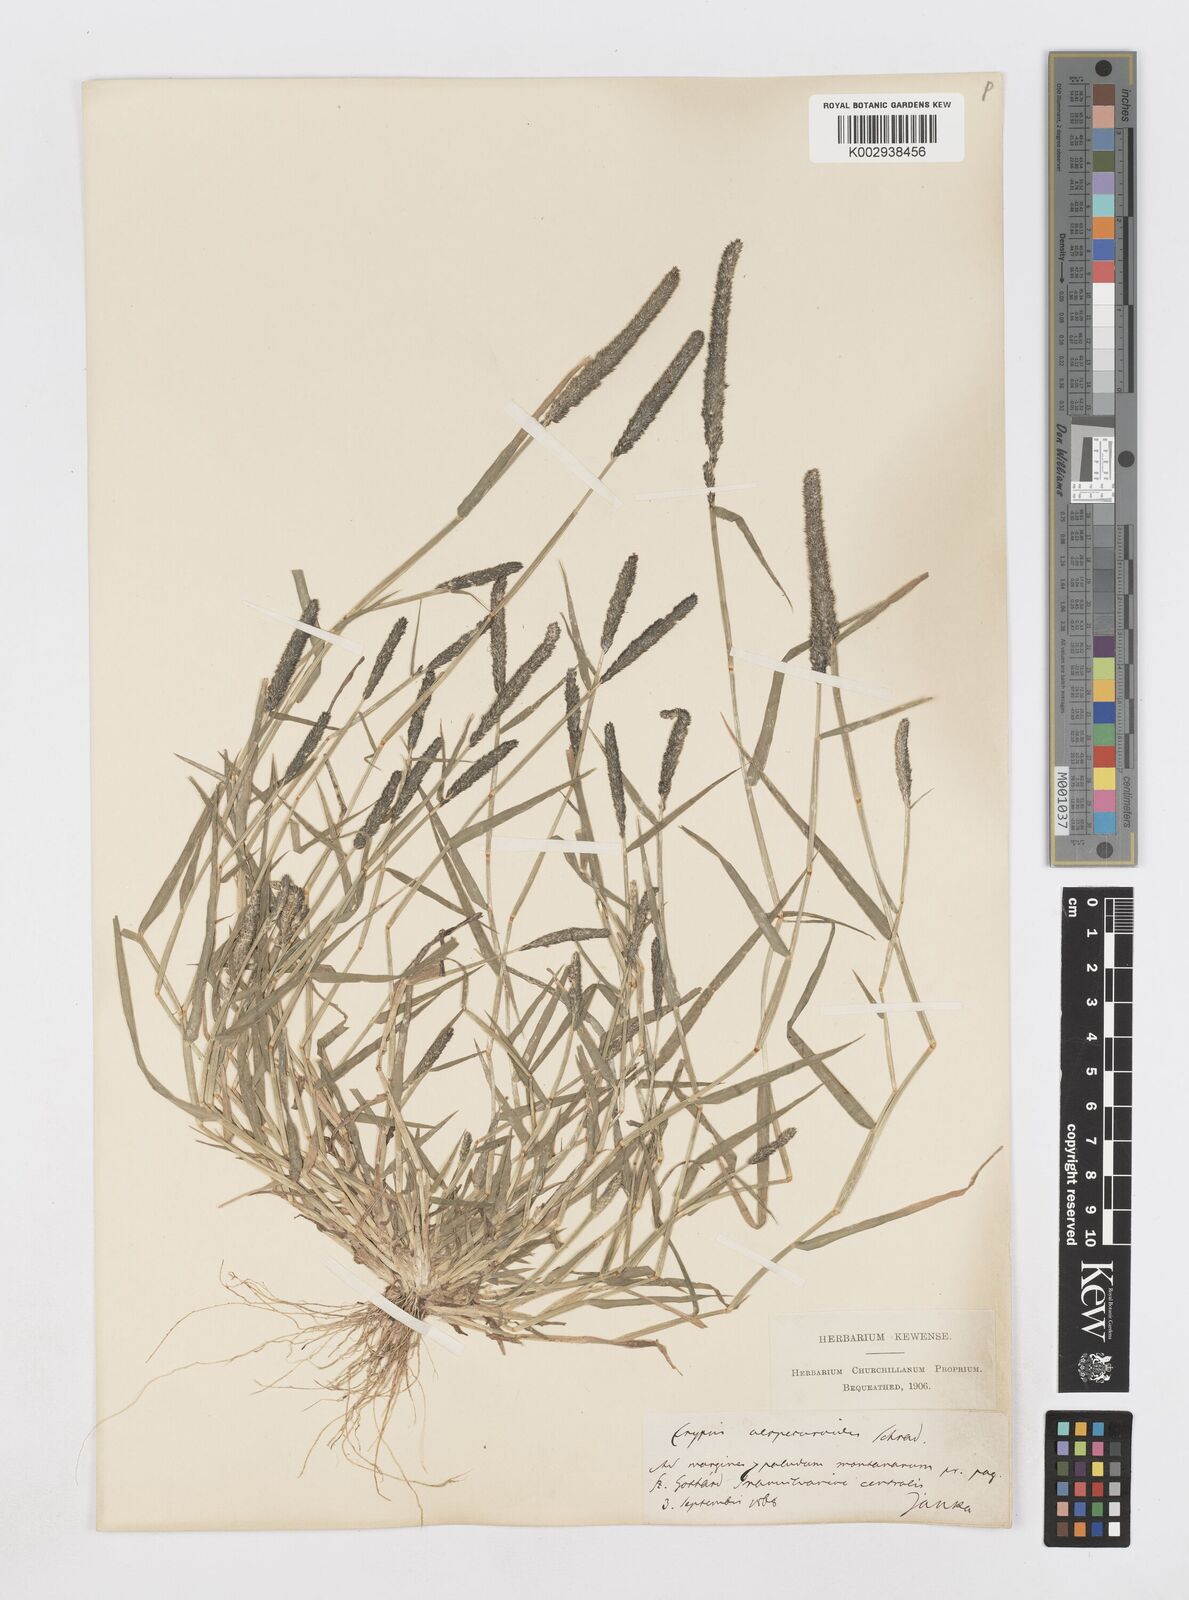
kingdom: Plantae
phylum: Tracheophyta
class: Liliopsida
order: Poales
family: Poaceae
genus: Sporobolus
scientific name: Sporobolus alopecuroides
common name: Foxtail pricklegrass
